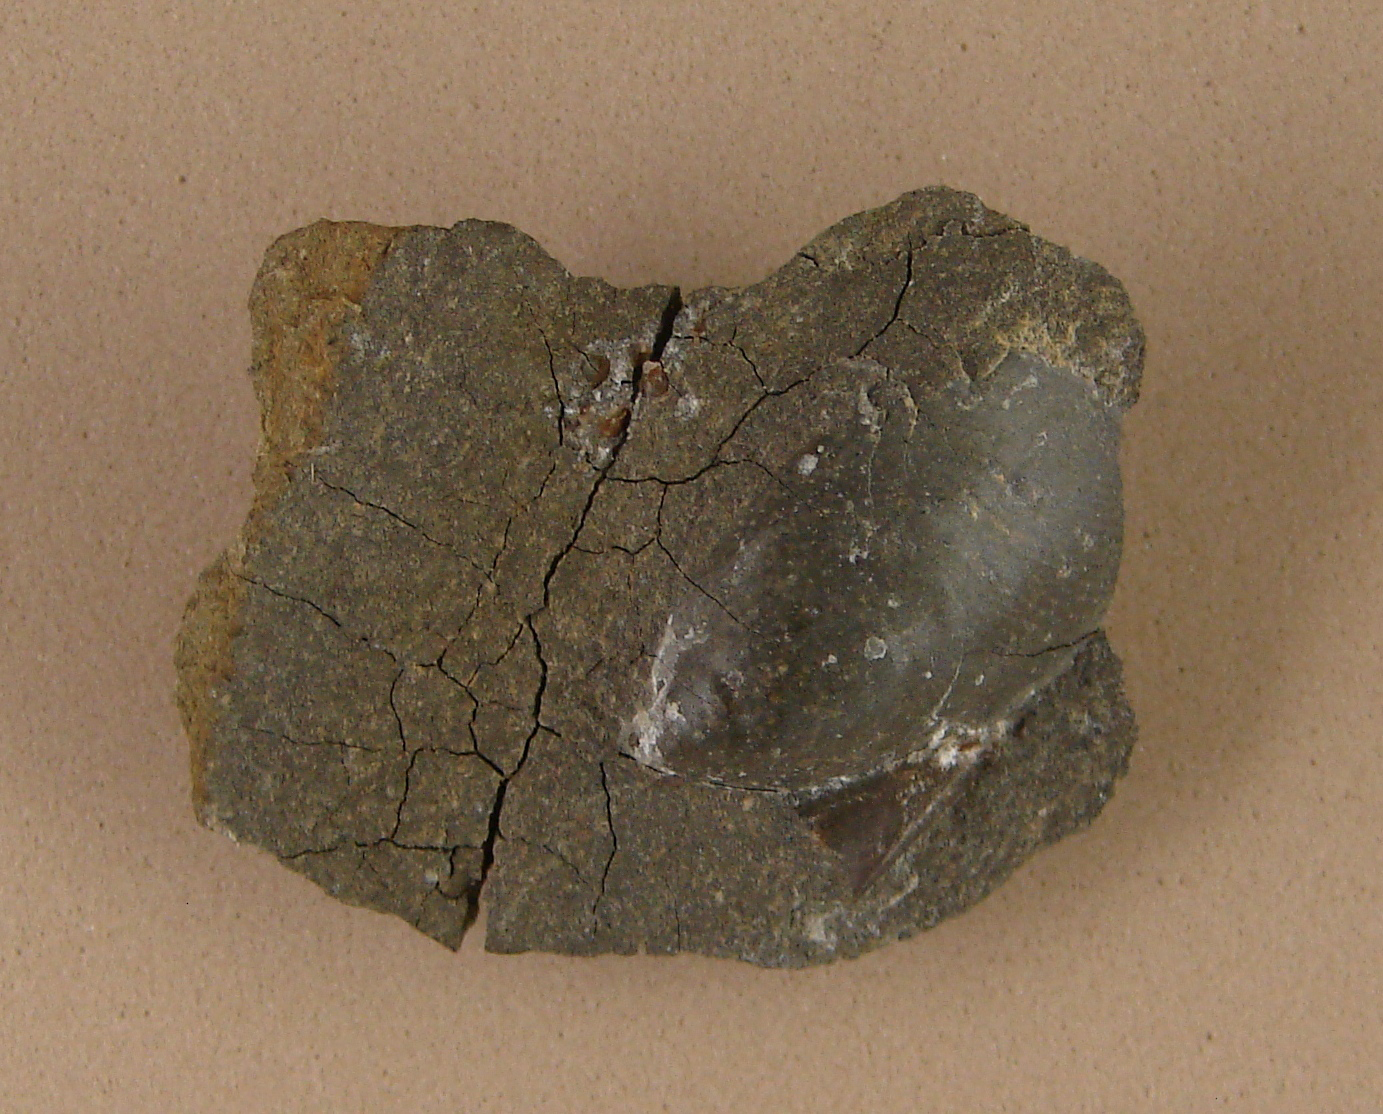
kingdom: Animalia
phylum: Mollusca
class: Bivalvia
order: Myalinida
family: Inoceramidae
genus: Inoceramus
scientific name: Inoceramus dubius
